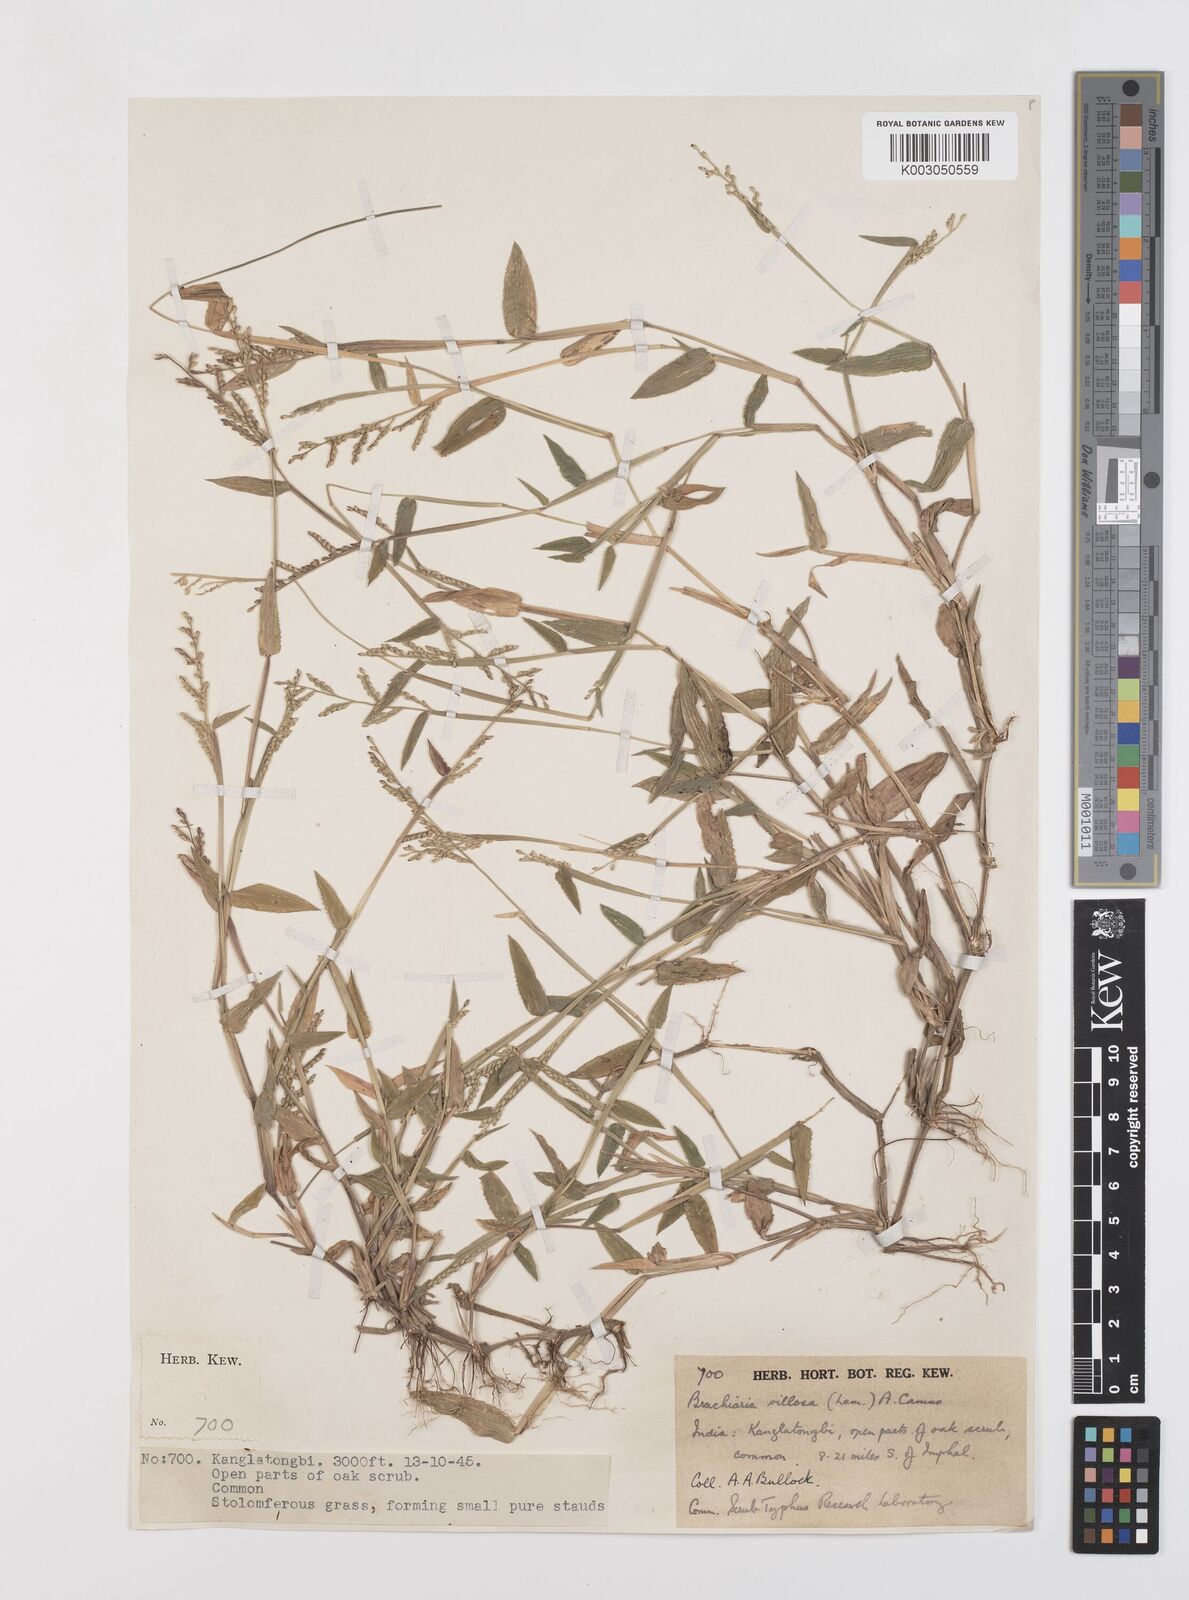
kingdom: Plantae
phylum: Tracheophyta
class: Liliopsida
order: Poales
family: Poaceae
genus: Urochloa
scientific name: Urochloa villosa
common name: Hairy signalgrass
